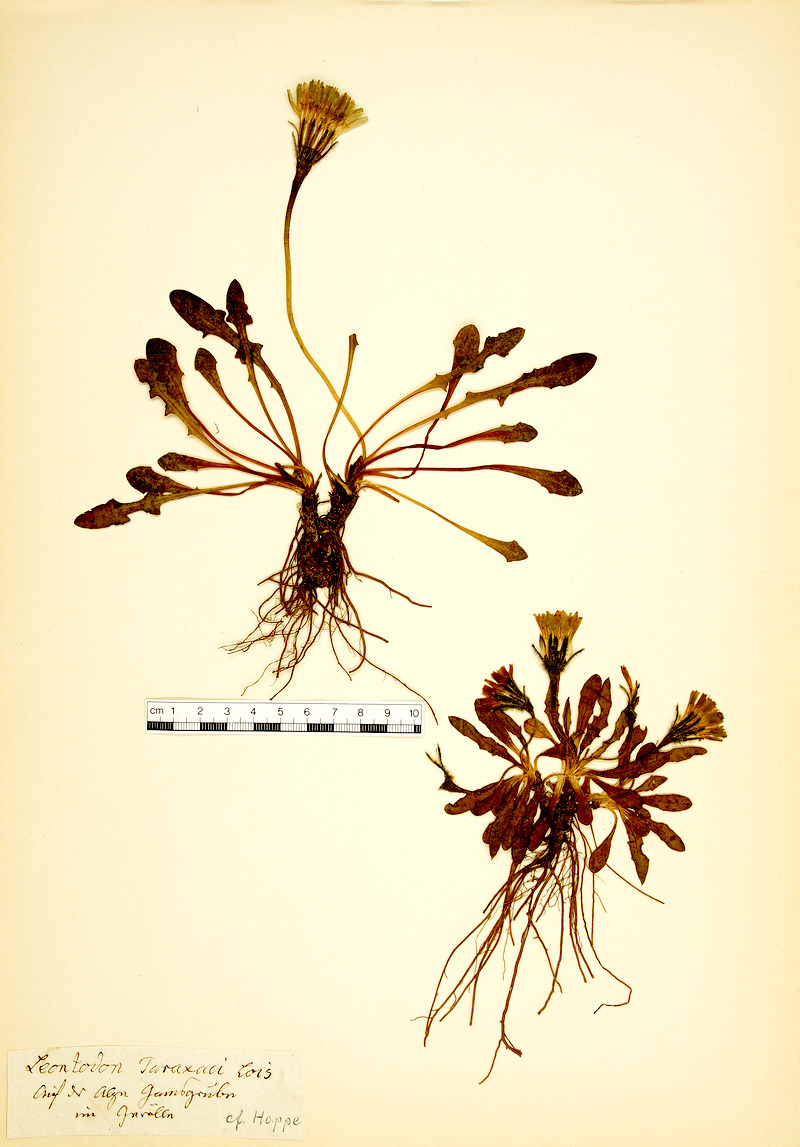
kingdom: Plantae
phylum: Tracheophyta
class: Magnoliopsida
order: Asterales
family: Asteraceae
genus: Scorzoneroides
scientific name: Scorzoneroides montana
